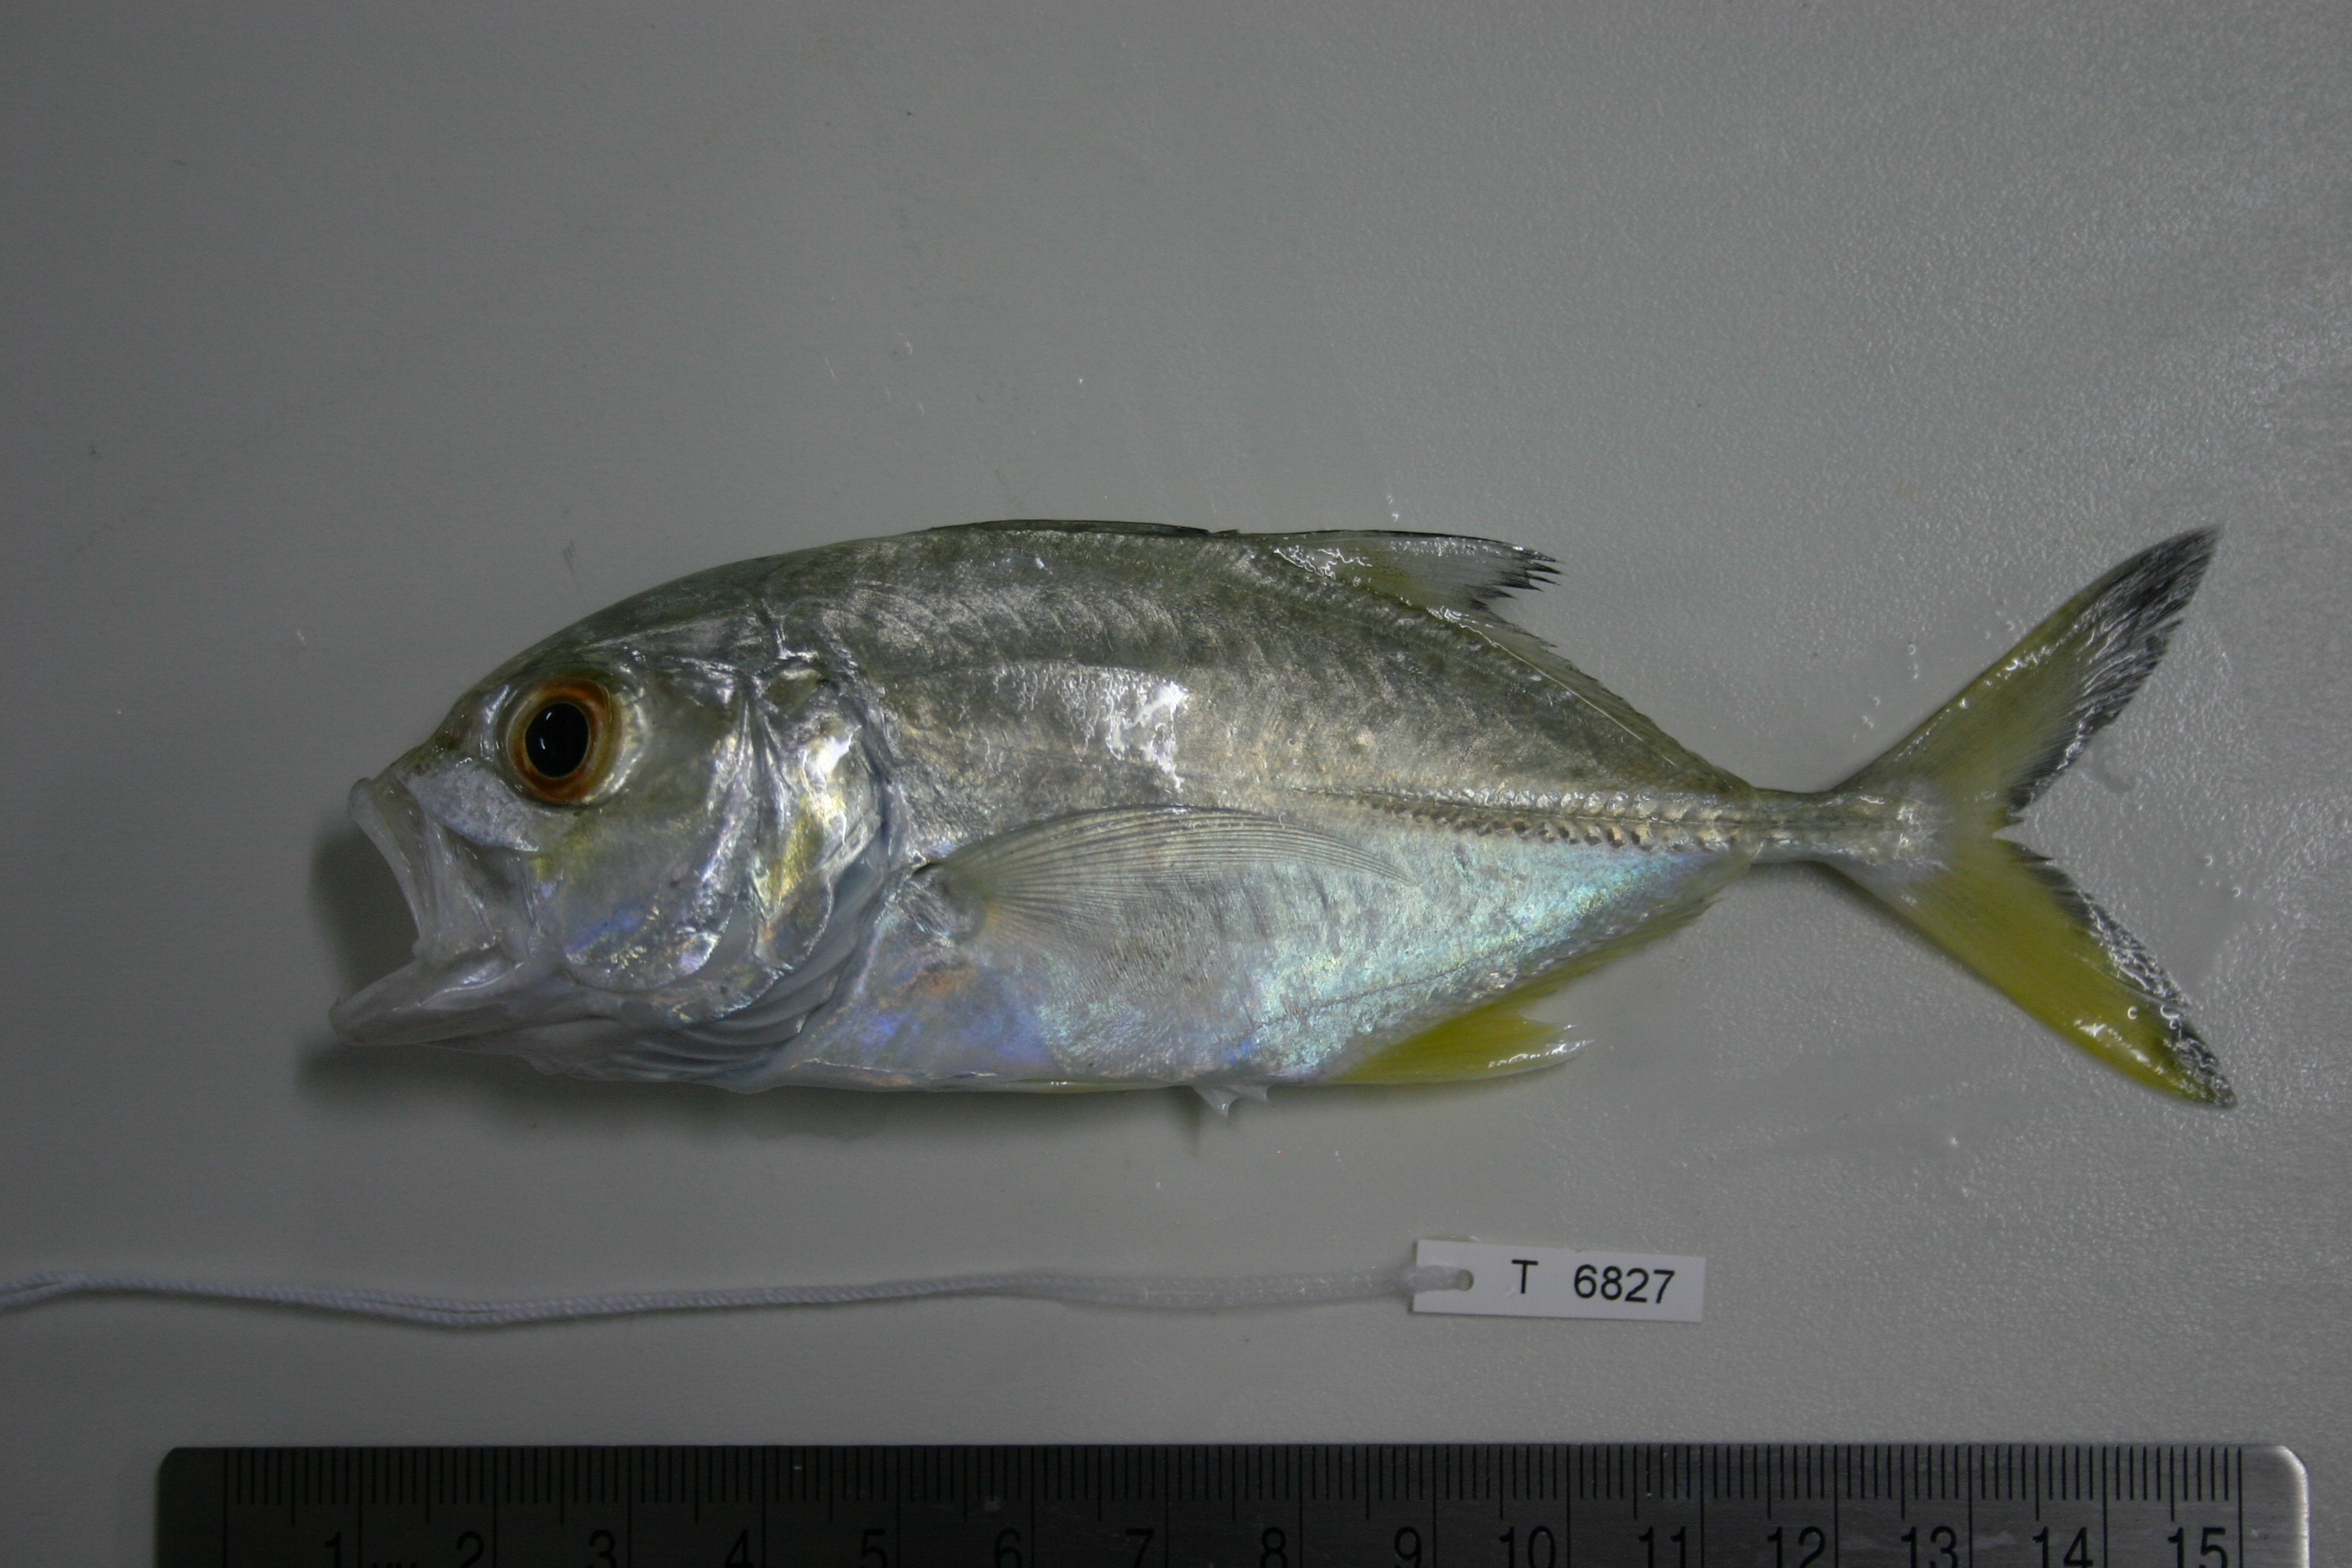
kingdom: Animalia
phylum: Chordata
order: Perciformes
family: Carangidae
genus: Caranx
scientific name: Caranx heberi
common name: Blacktip trevally
